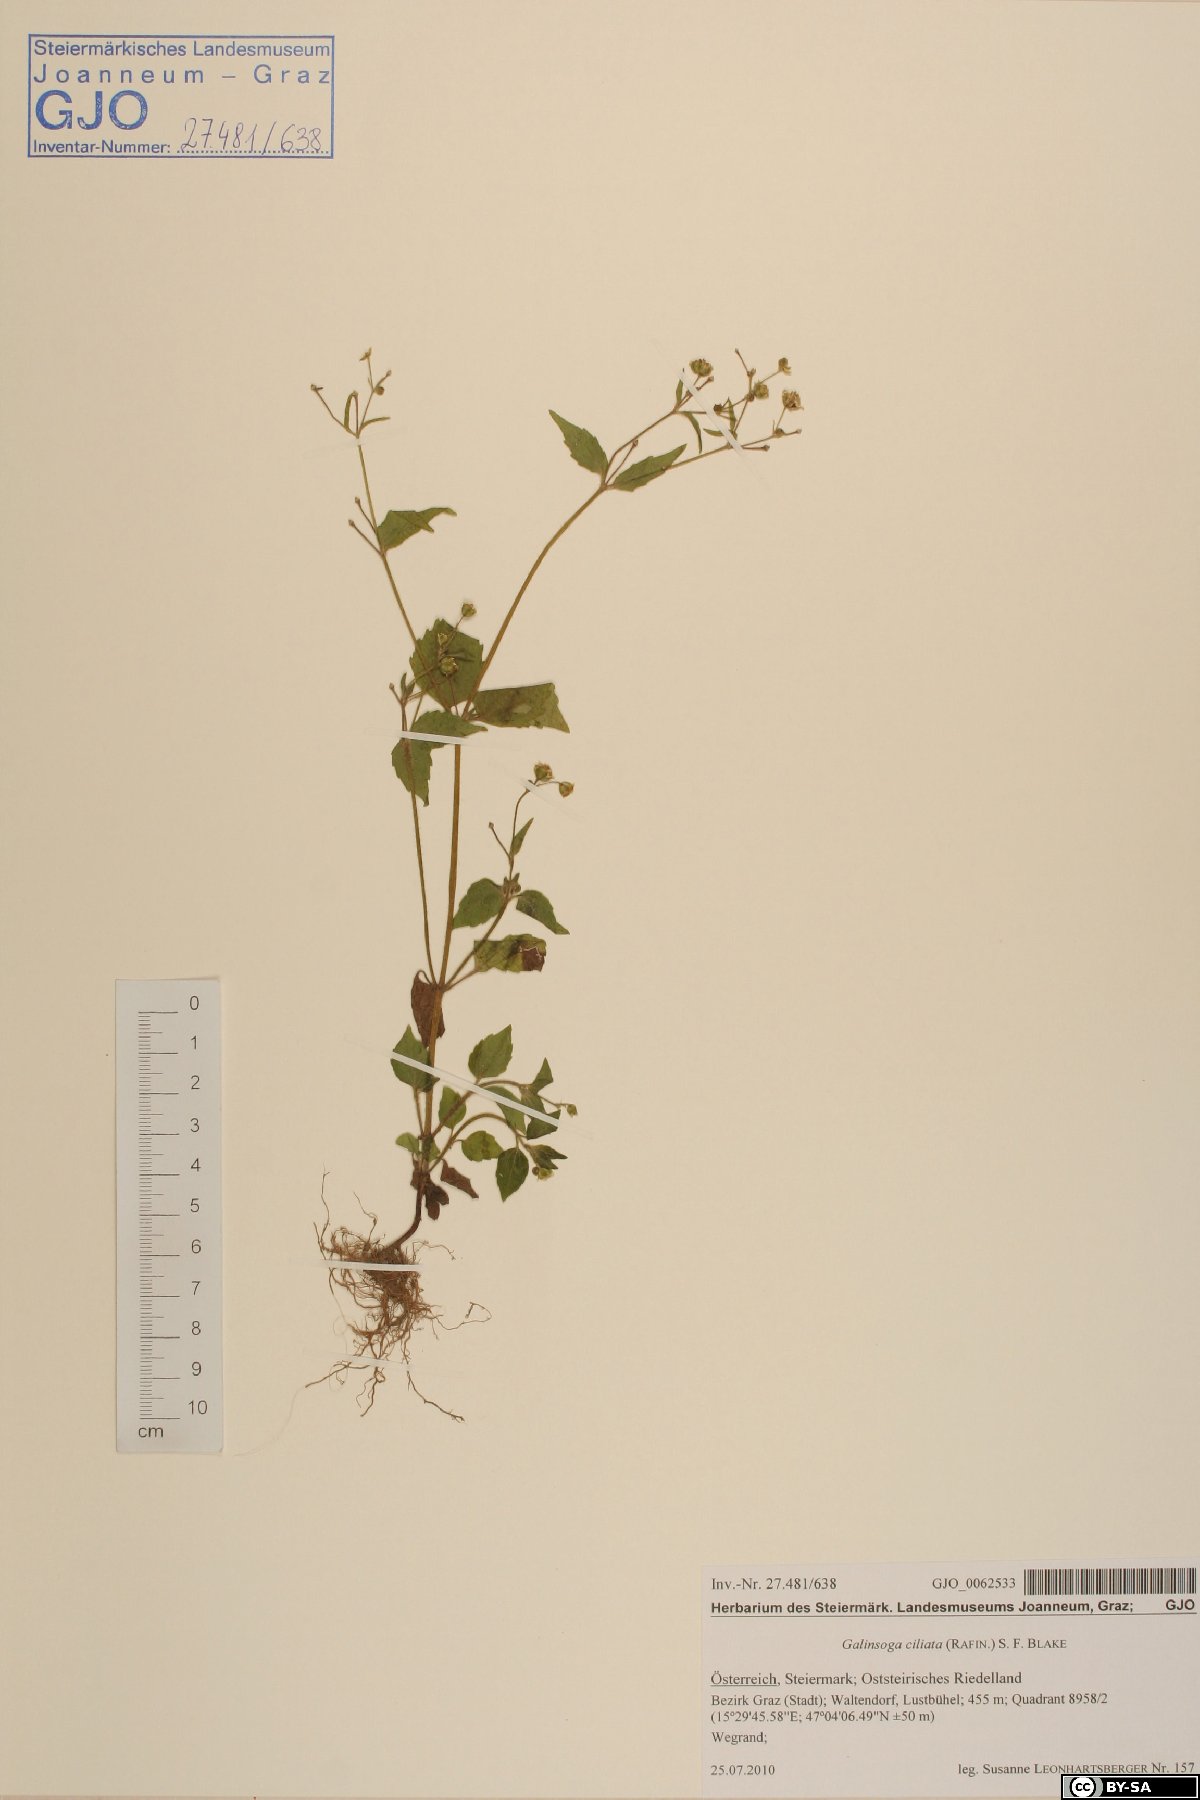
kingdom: Plantae
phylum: Tracheophyta
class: Magnoliopsida
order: Asterales
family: Asteraceae
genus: Galinsoga
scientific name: Galinsoga quadriradiata
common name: Shaggy soldier
